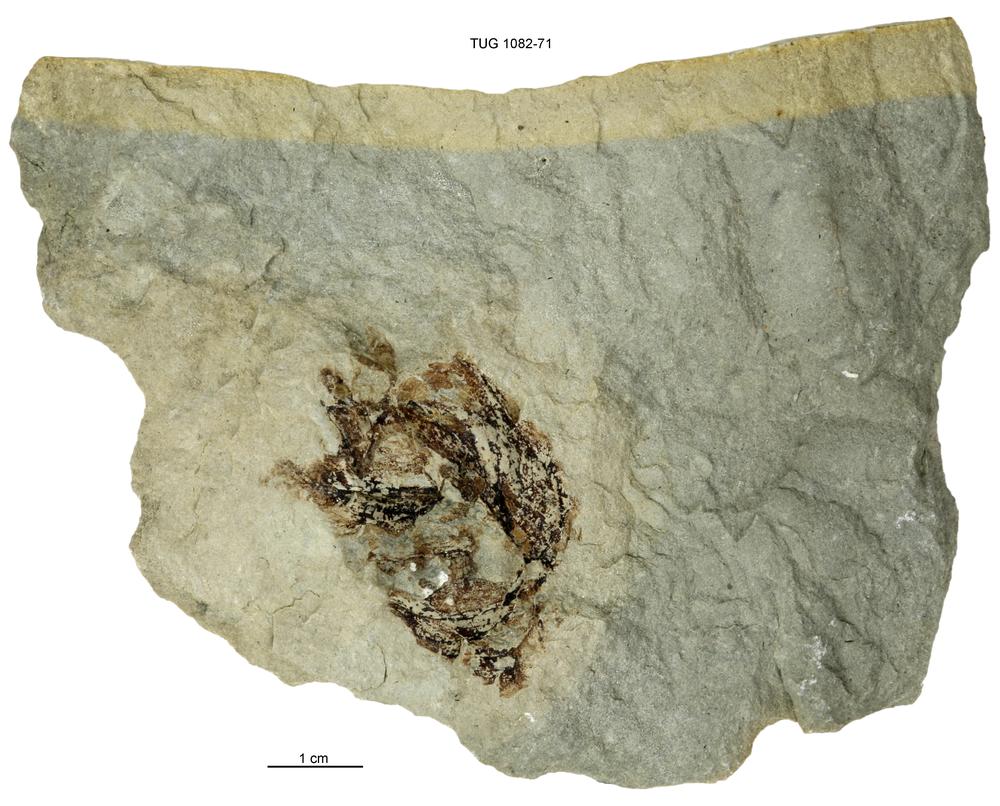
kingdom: Animalia
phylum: Cnidaria
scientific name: Cnidaria
